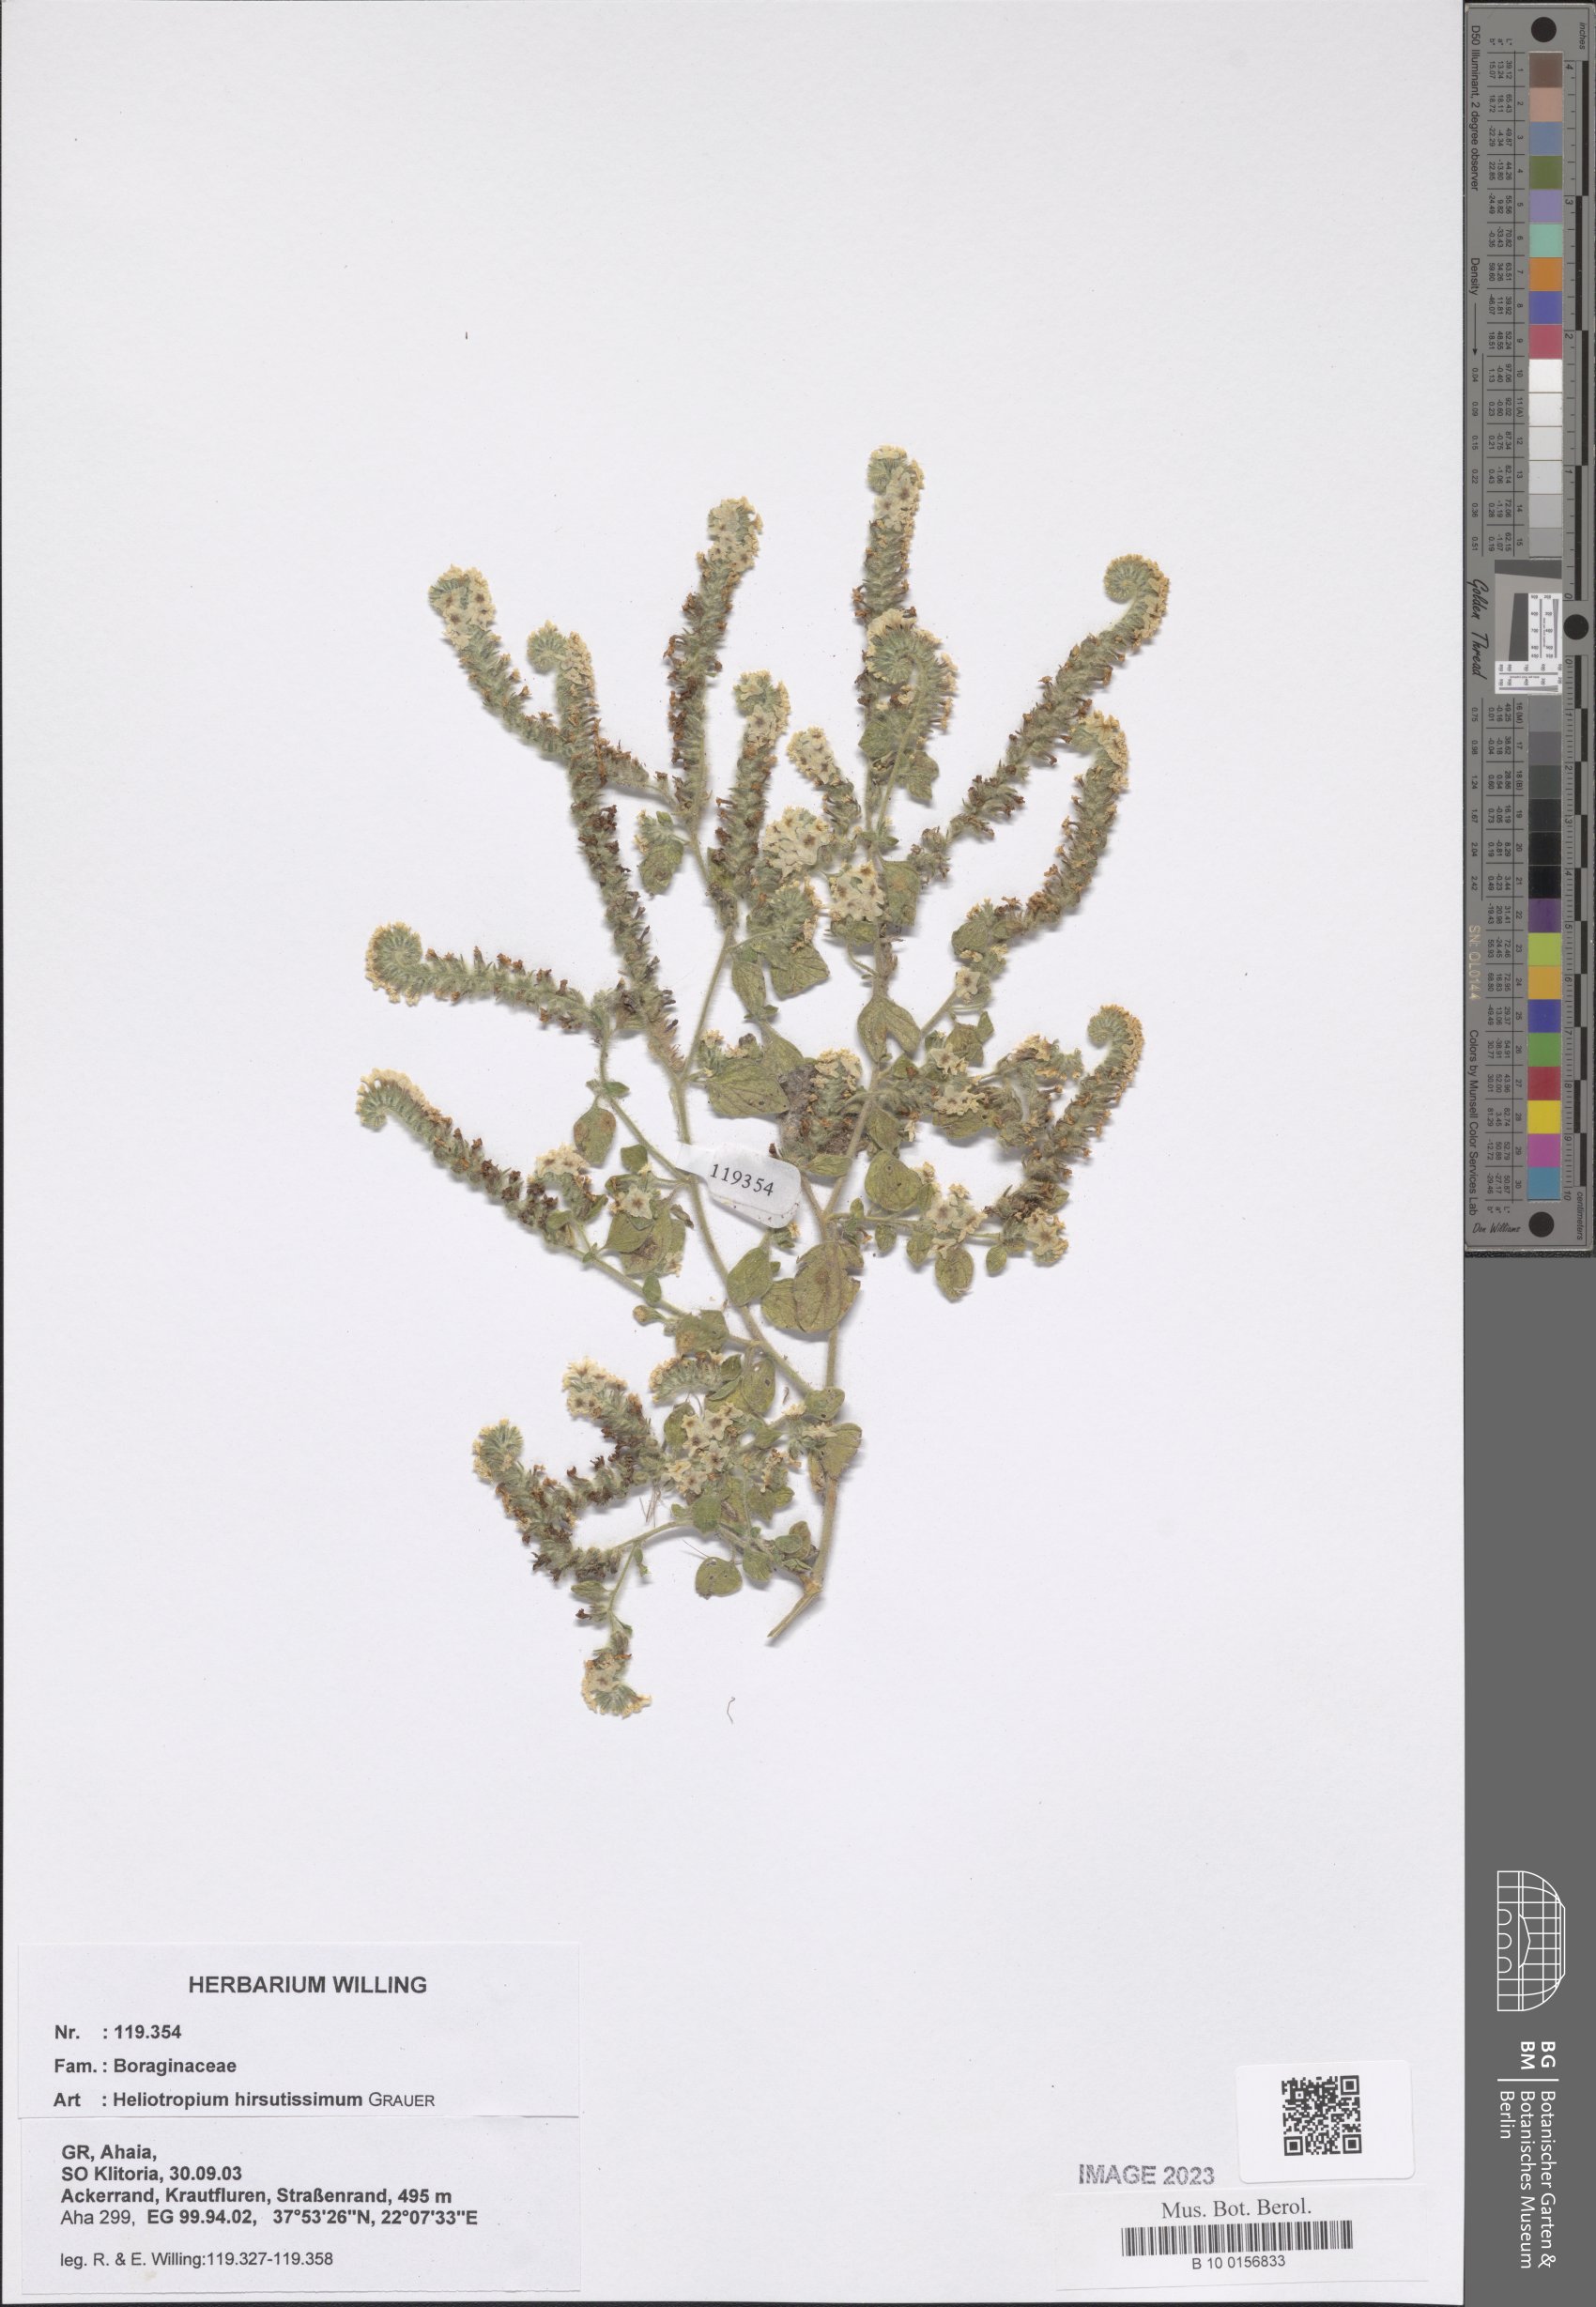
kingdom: Plantae
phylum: Tracheophyta
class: Magnoliopsida
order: Boraginales
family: Heliotropiaceae
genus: Heliotropium
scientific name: Heliotropium hirsutissimum
